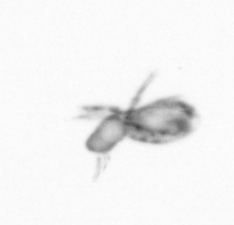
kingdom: Animalia
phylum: Arthropoda
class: Copepoda
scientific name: Copepoda
